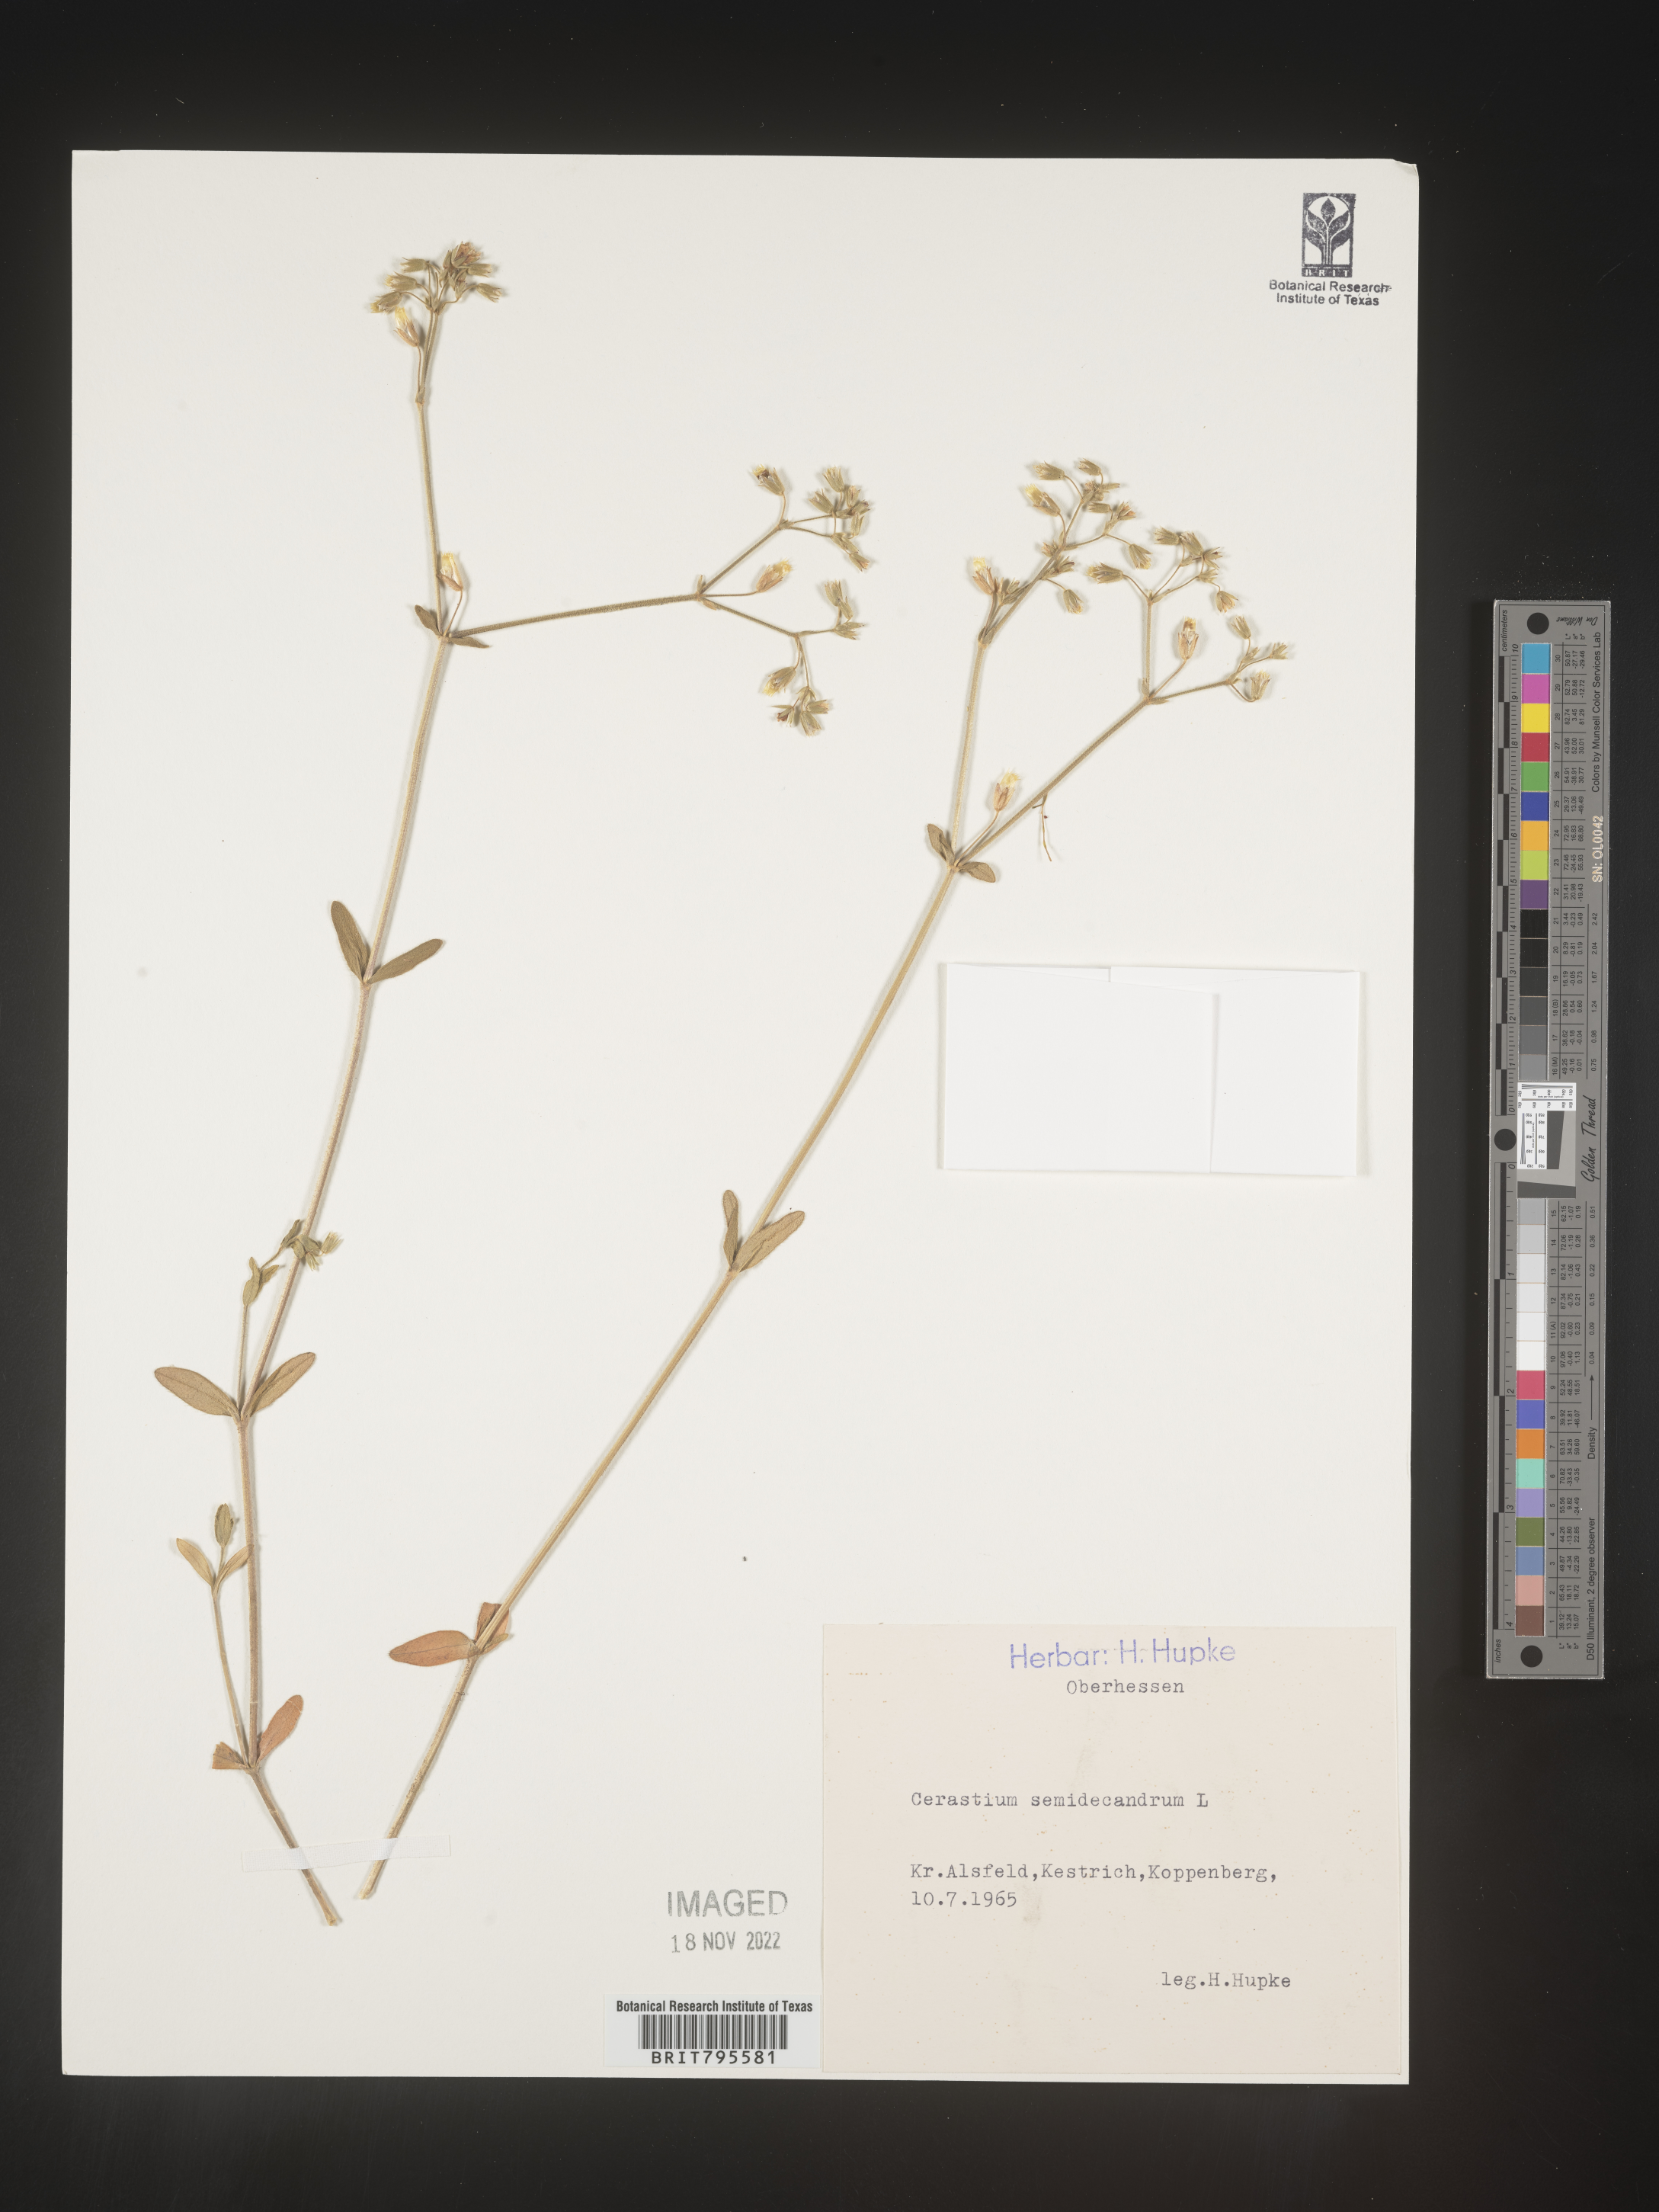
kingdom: Plantae
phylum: Tracheophyta
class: Magnoliopsida
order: Caryophyllales
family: Caryophyllaceae
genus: Cerastium
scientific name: Cerastium
